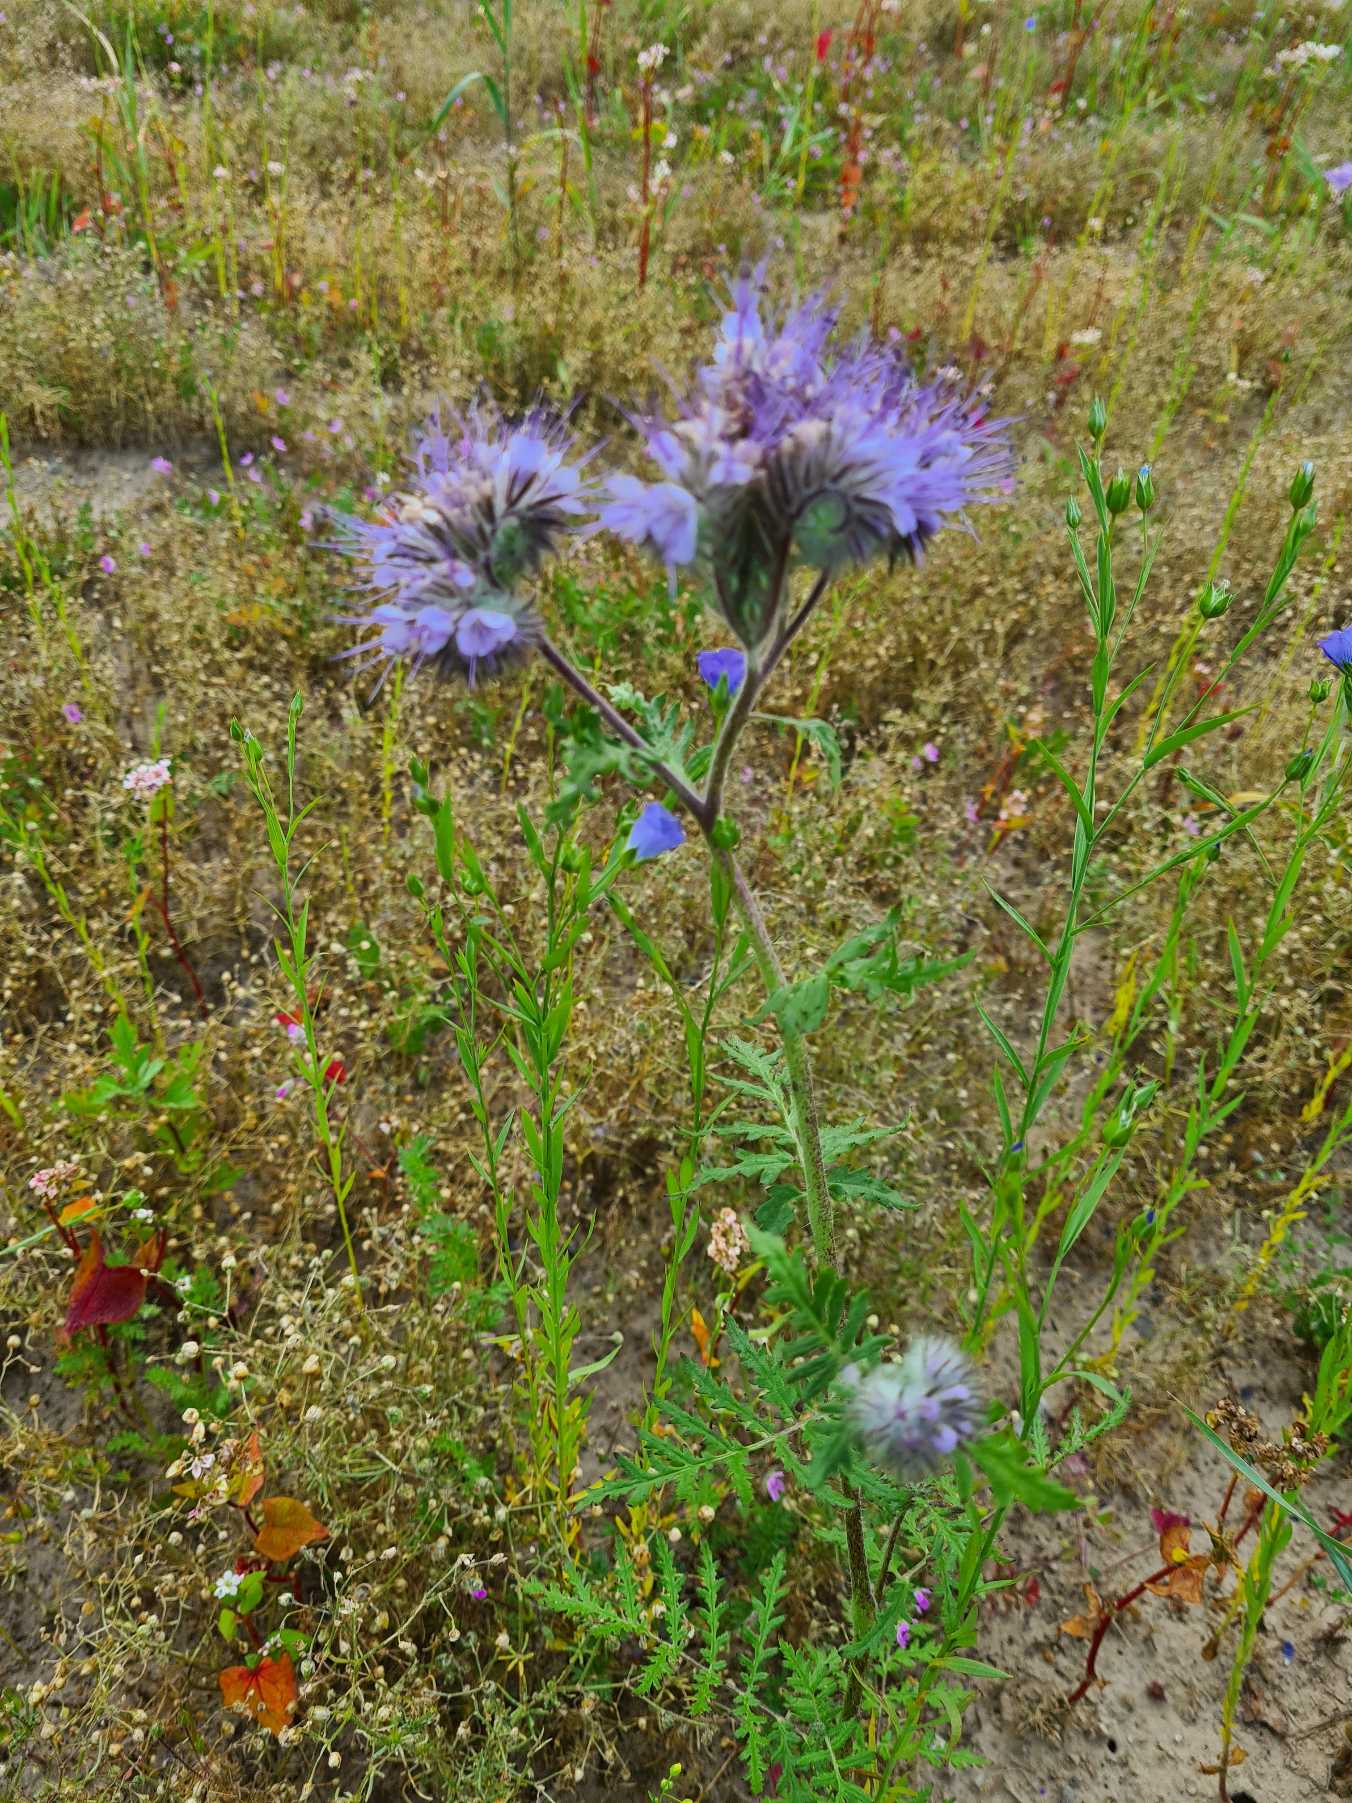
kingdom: Plantae
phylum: Tracheophyta
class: Magnoliopsida
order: Boraginales
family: Hydrophyllaceae
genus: Phacelia
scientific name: Phacelia tanacetifolia
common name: Honningurt
